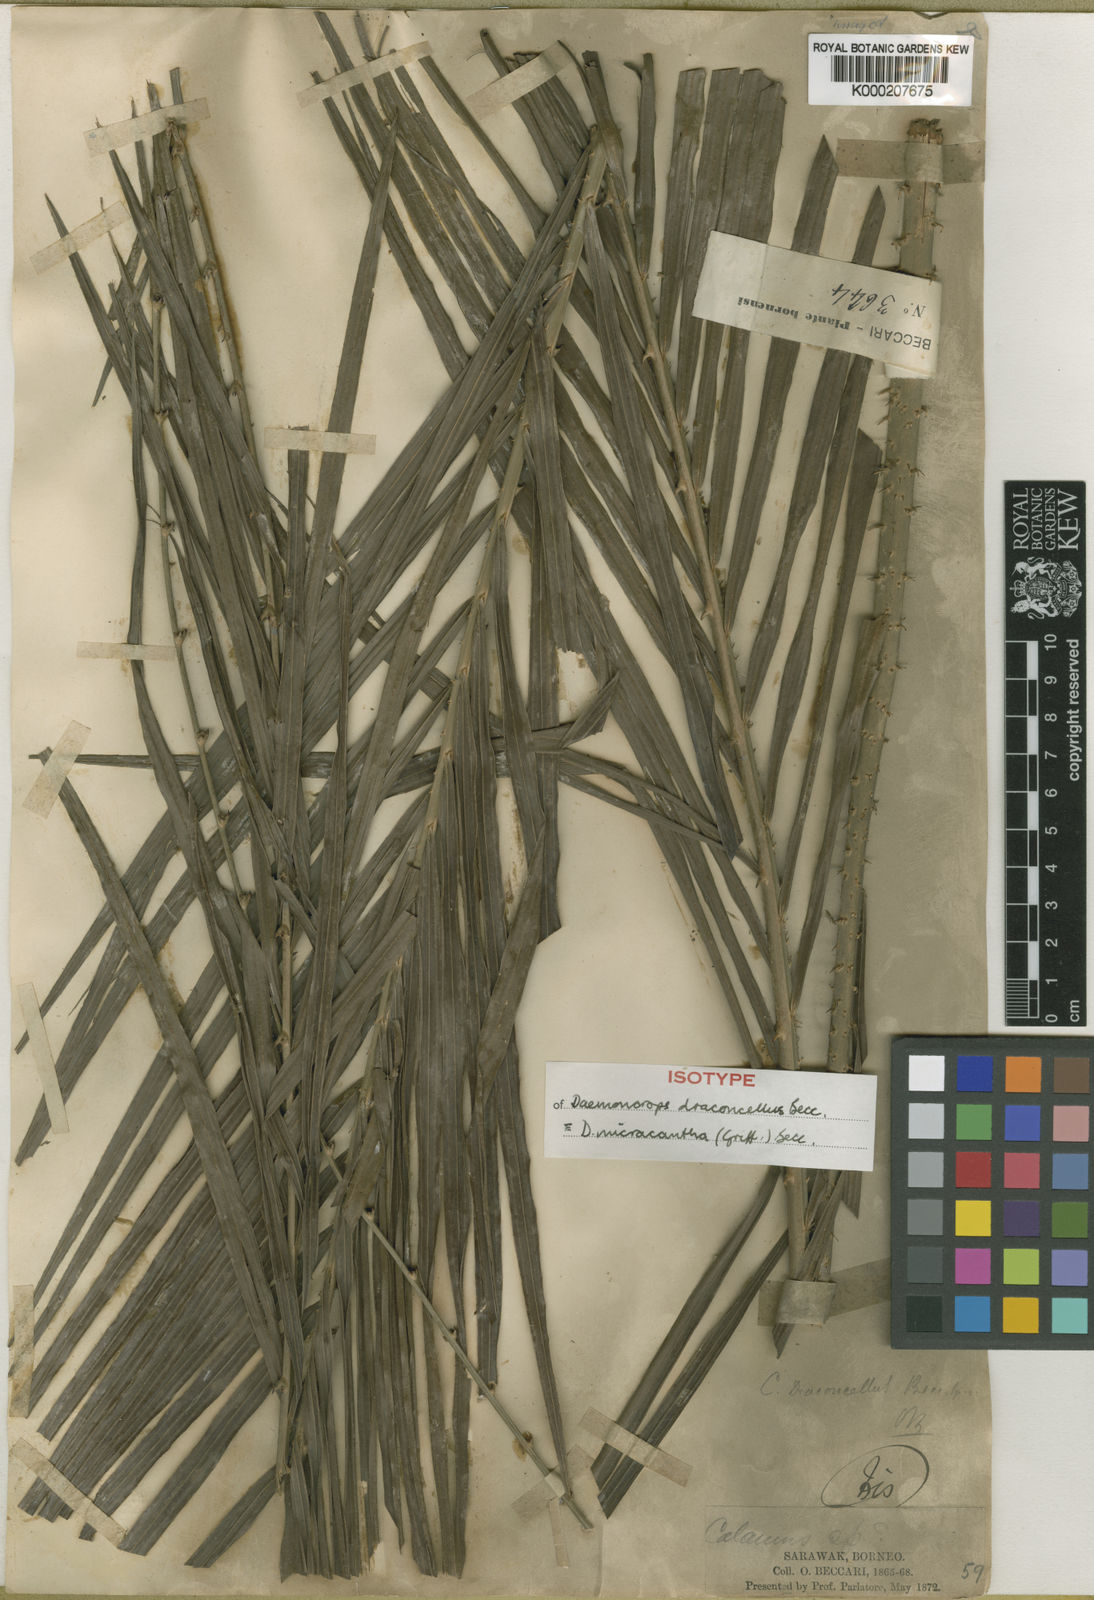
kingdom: Plantae
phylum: Tracheophyta
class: Liliopsida
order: Arecales
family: Arecaceae
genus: Calamus
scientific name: Calamus micracanthus
